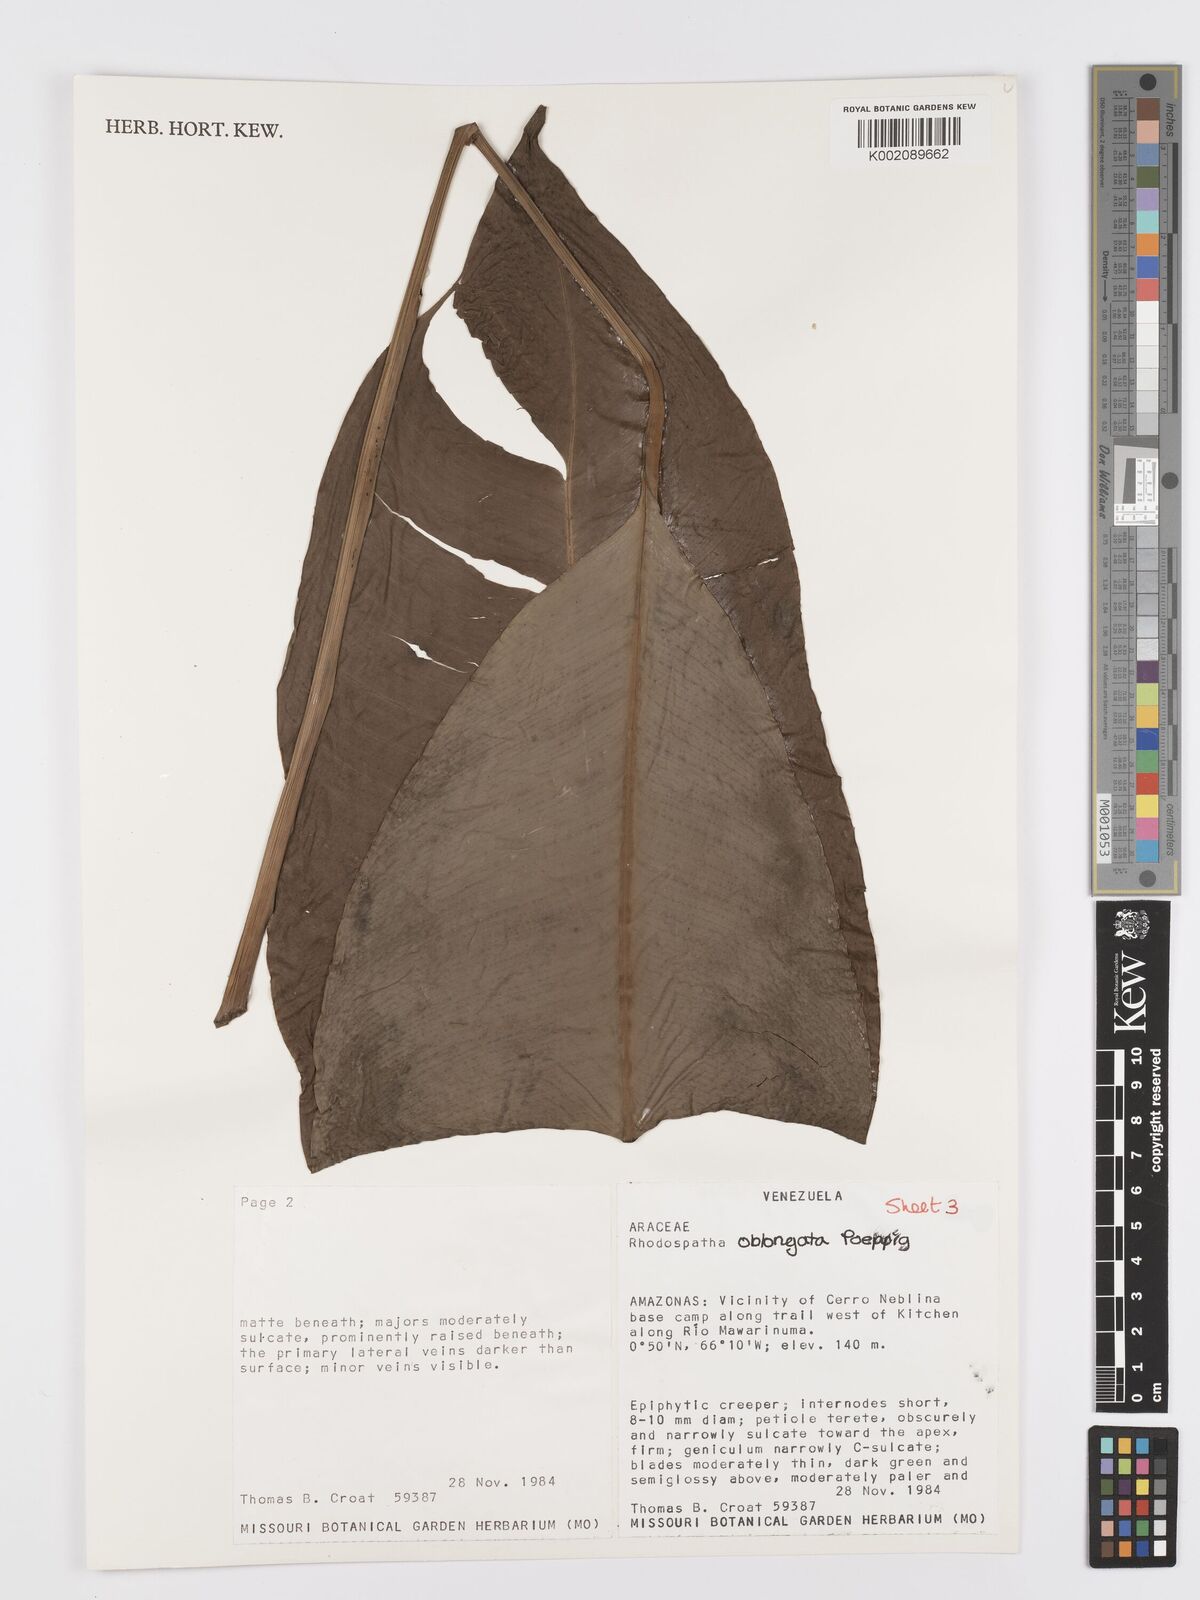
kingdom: Plantae
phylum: Tracheophyta
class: Liliopsida
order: Alismatales
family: Araceae
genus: Rhodospatha
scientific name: Rhodospatha oblongata
